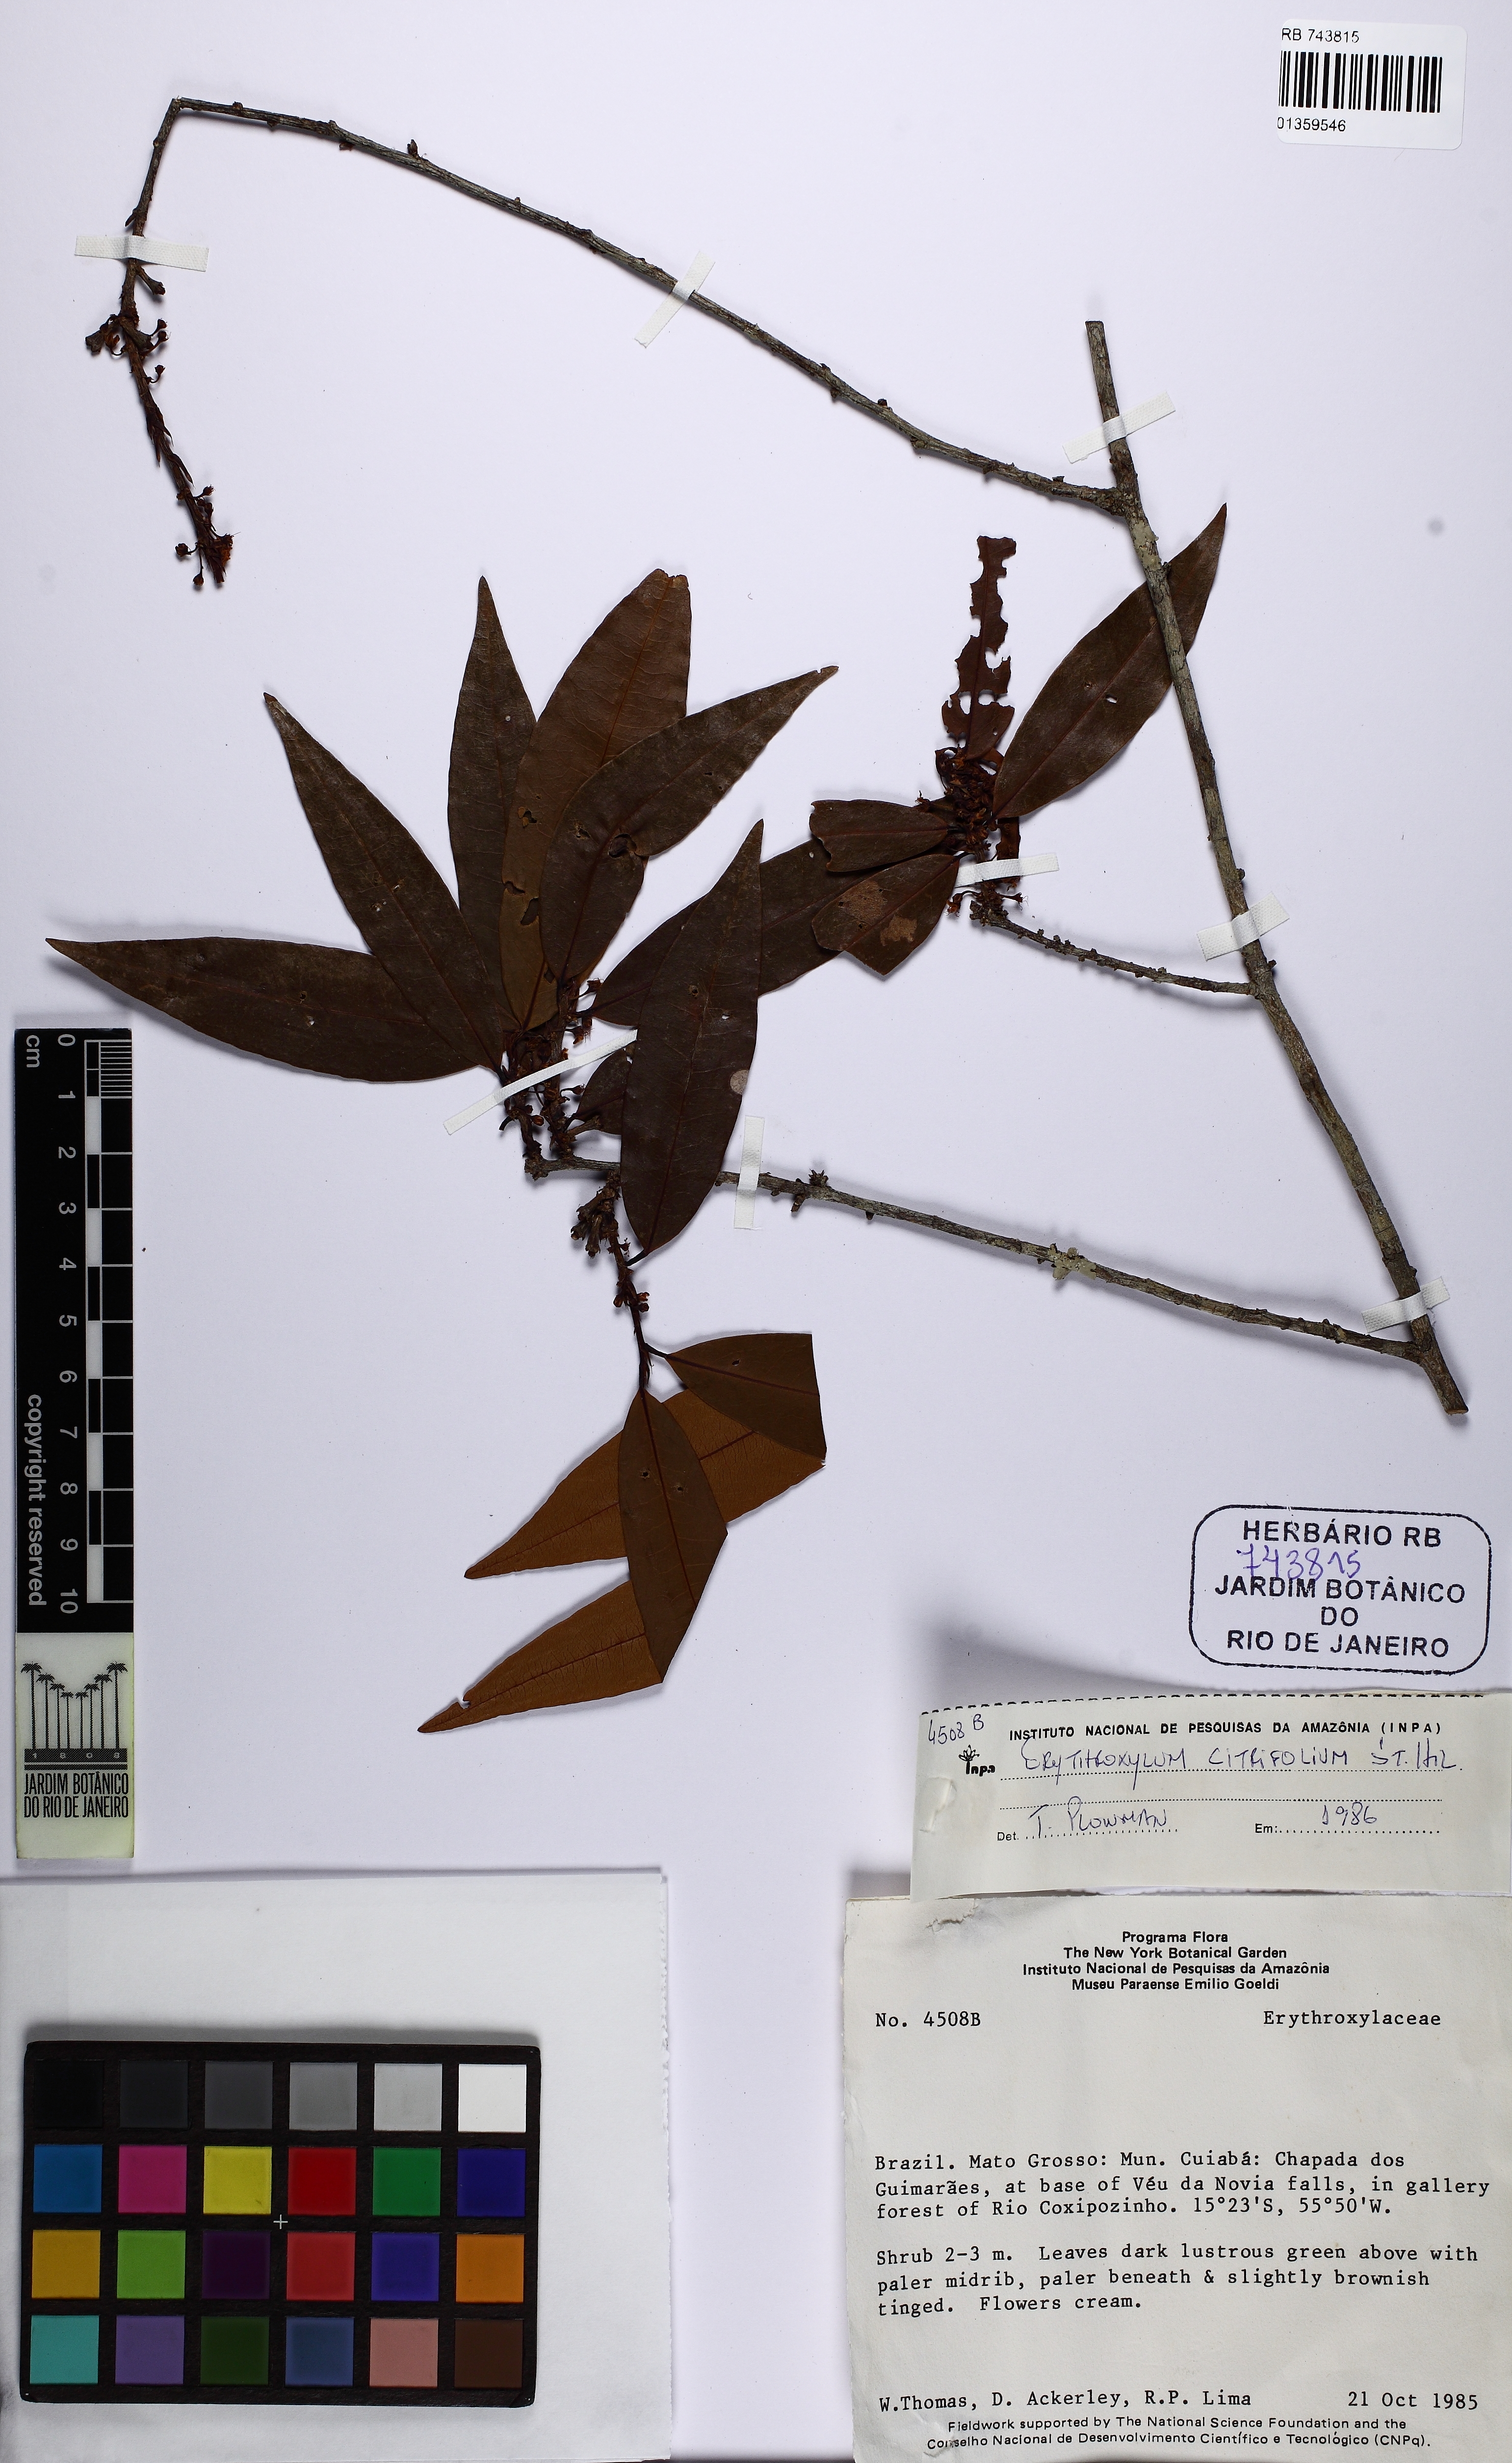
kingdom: Plantae
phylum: Tracheophyta
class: Magnoliopsida
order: Malpighiales
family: Erythroxylaceae
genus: Erythroxylum
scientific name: Erythroxylum citrifolium
